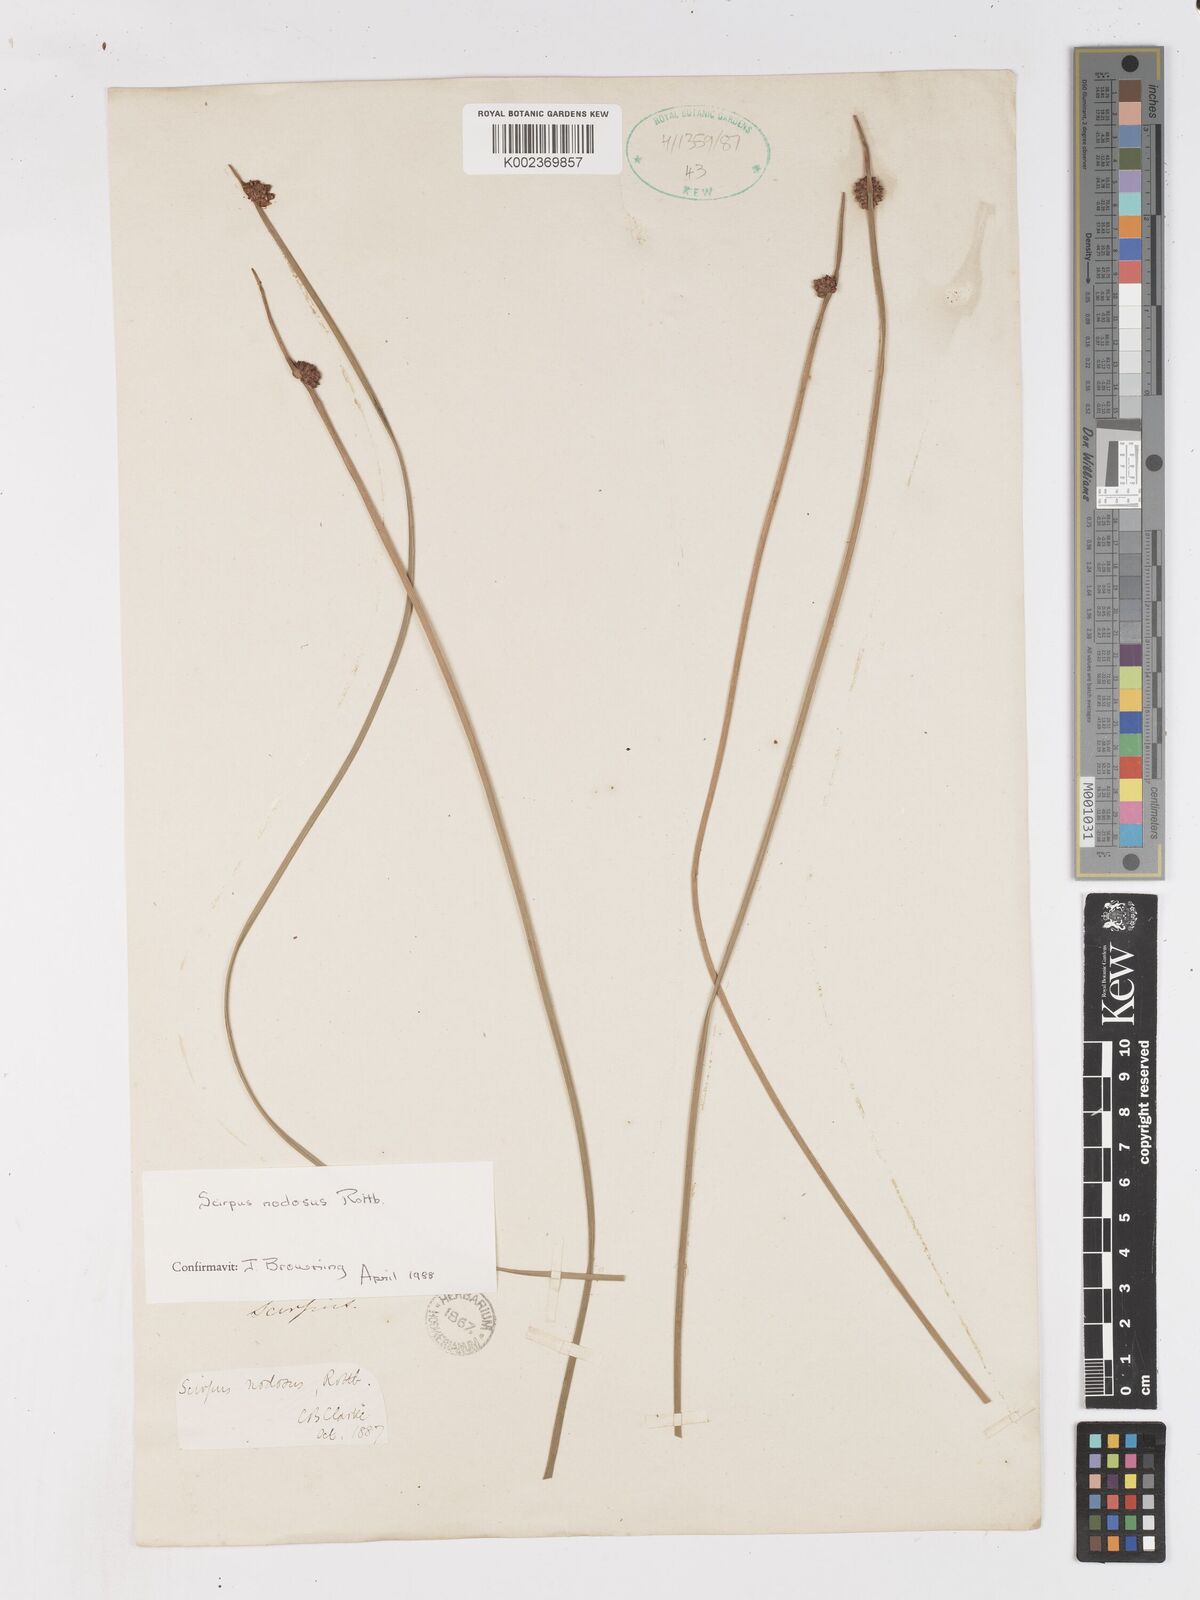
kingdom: Plantae
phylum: Tracheophyta
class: Liliopsida
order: Poales
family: Cyperaceae
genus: Ficinia
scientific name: Ficinia nodosa
